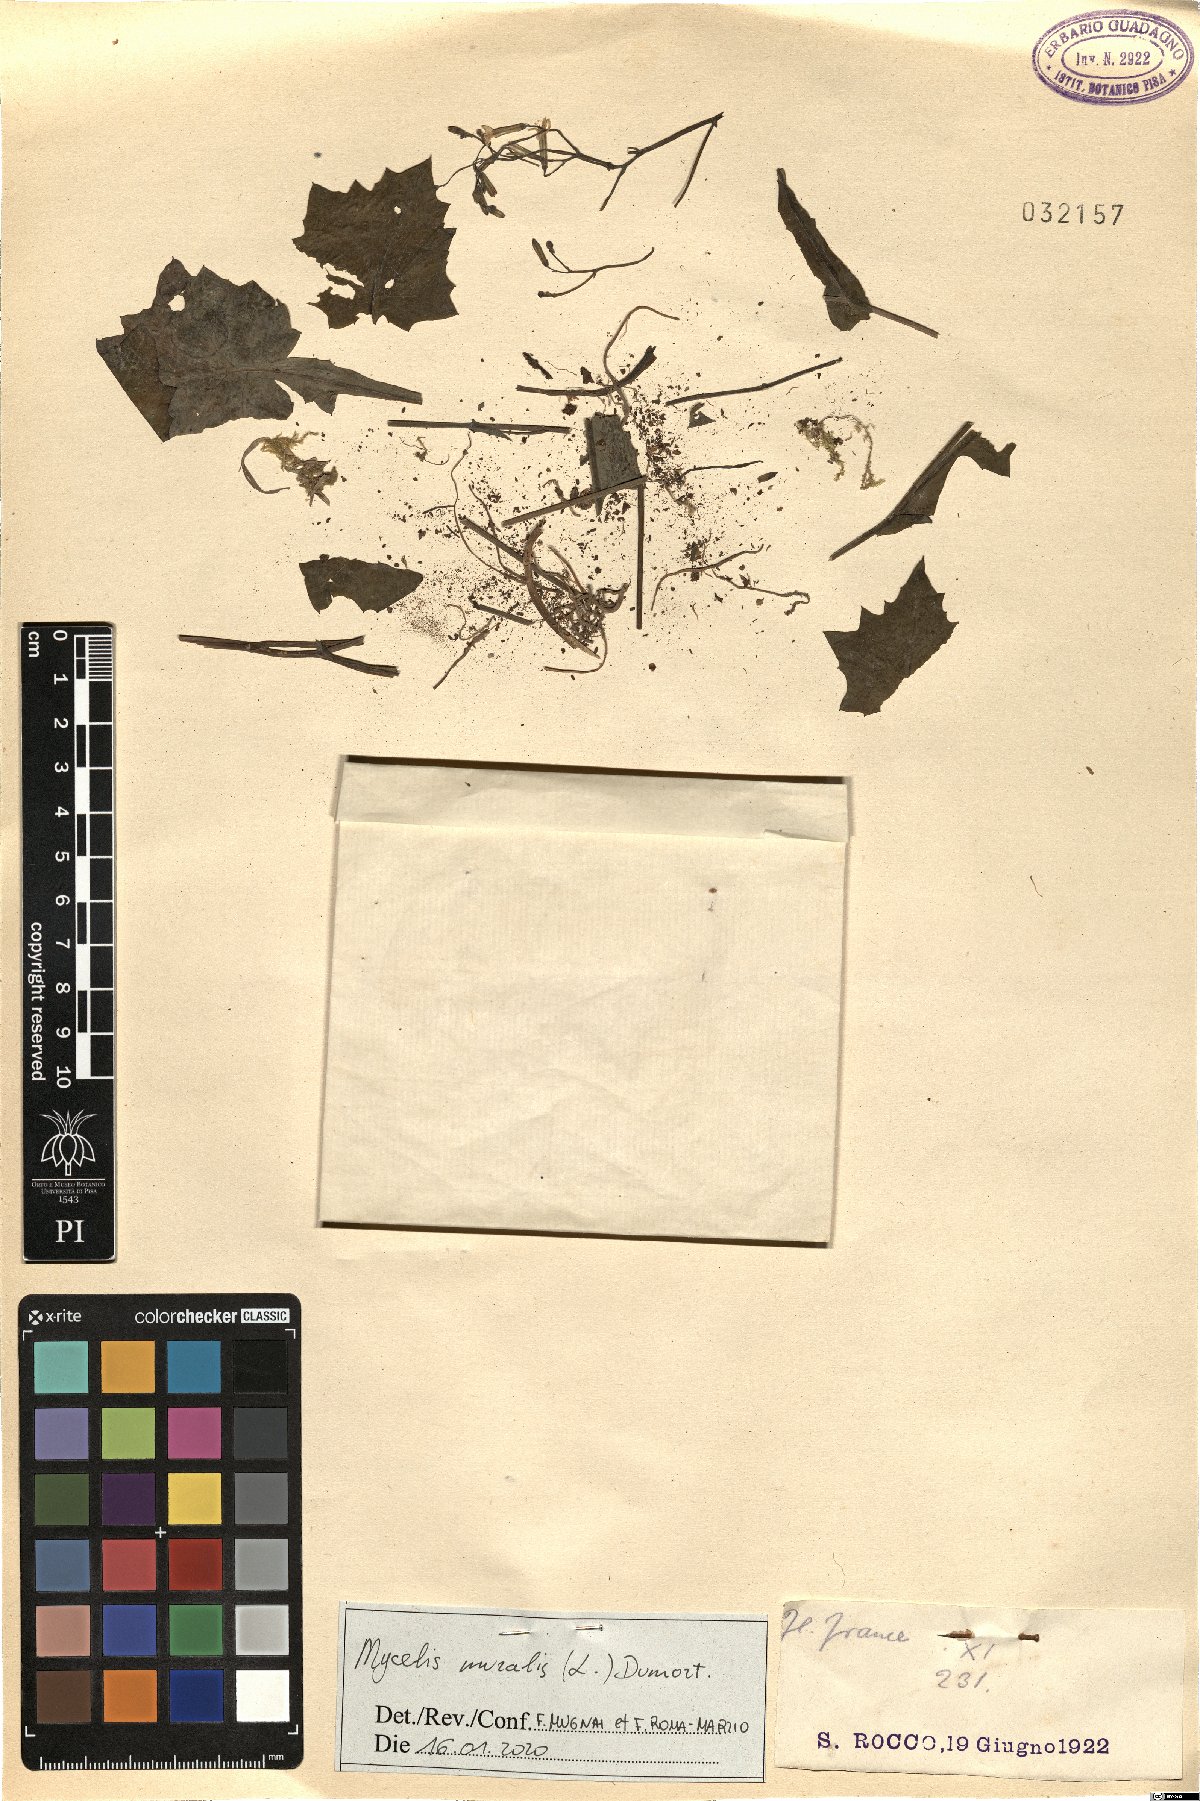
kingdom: Plantae
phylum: Tracheophyta
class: Magnoliopsida
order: Asterales
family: Asteraceae
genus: Mycelis
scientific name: Mycelis muralis
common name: Wall lettuce
